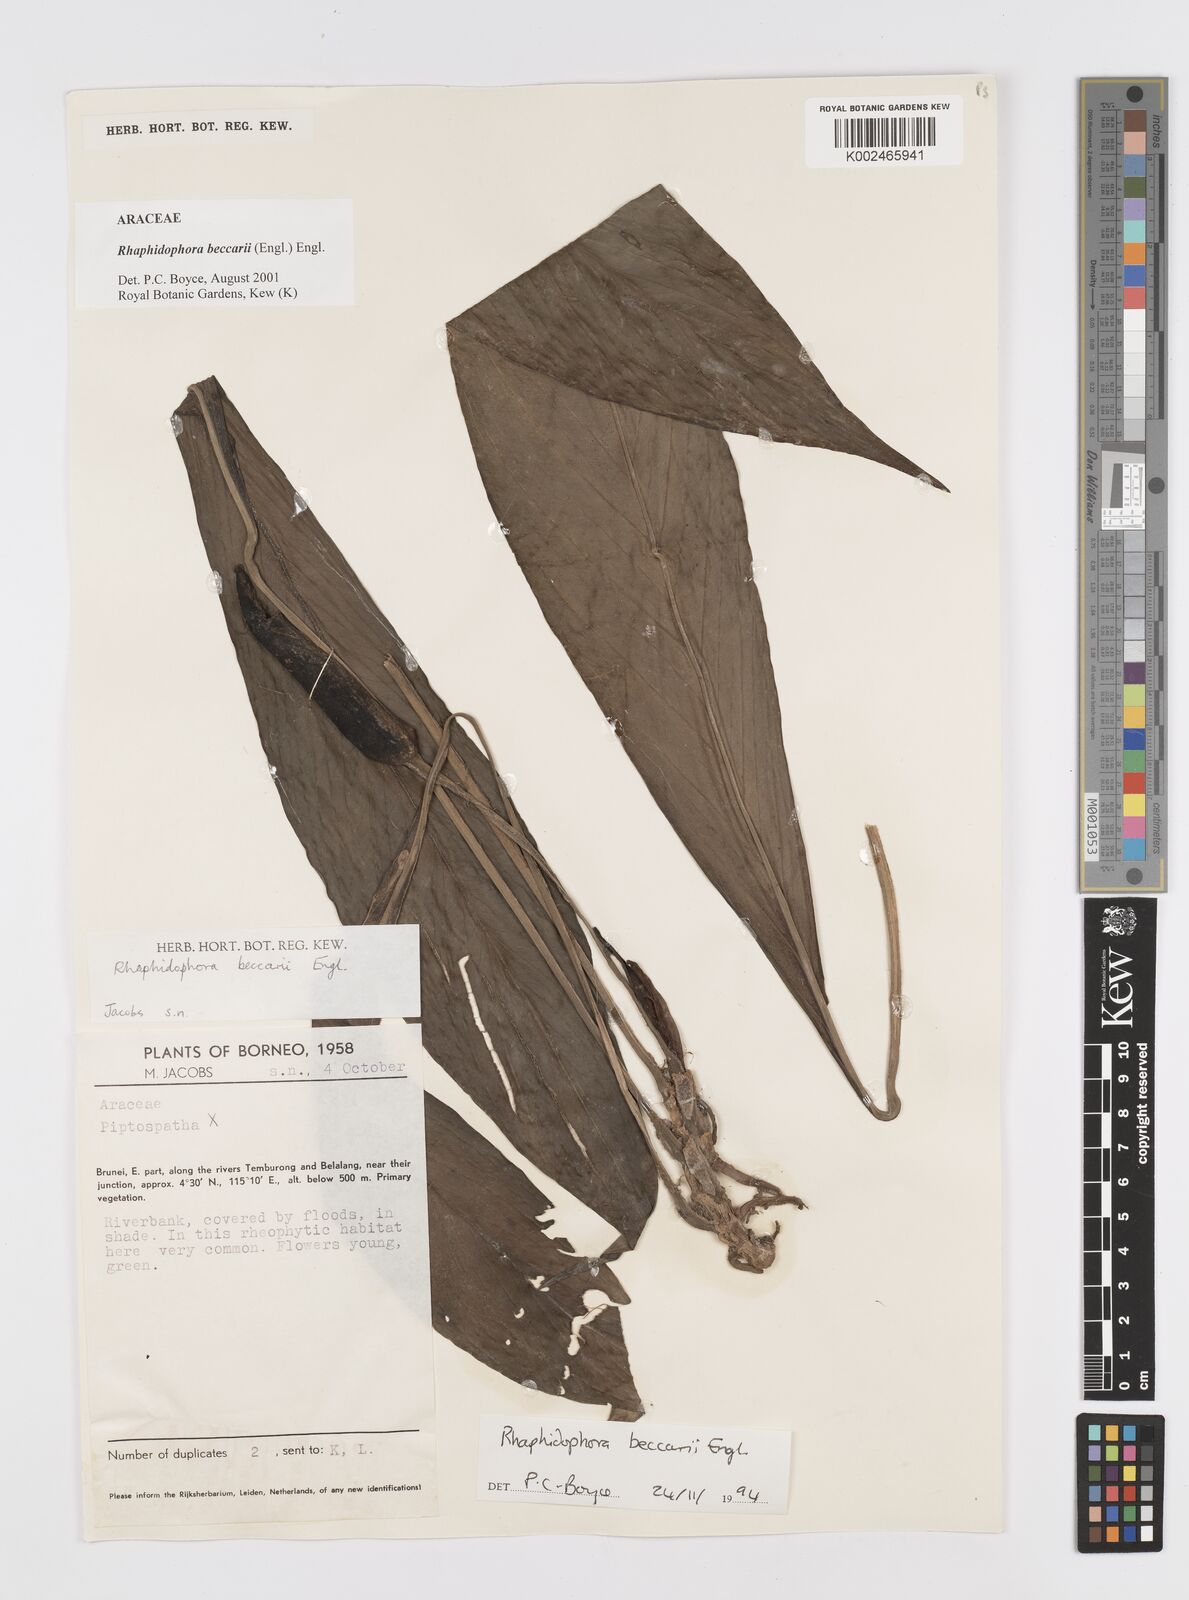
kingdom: Plantae
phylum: Tracheophyta
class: Liliopsida
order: Alismatales
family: Araceae
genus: Rhaphidophora
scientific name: Rhaphidophora beccarii
